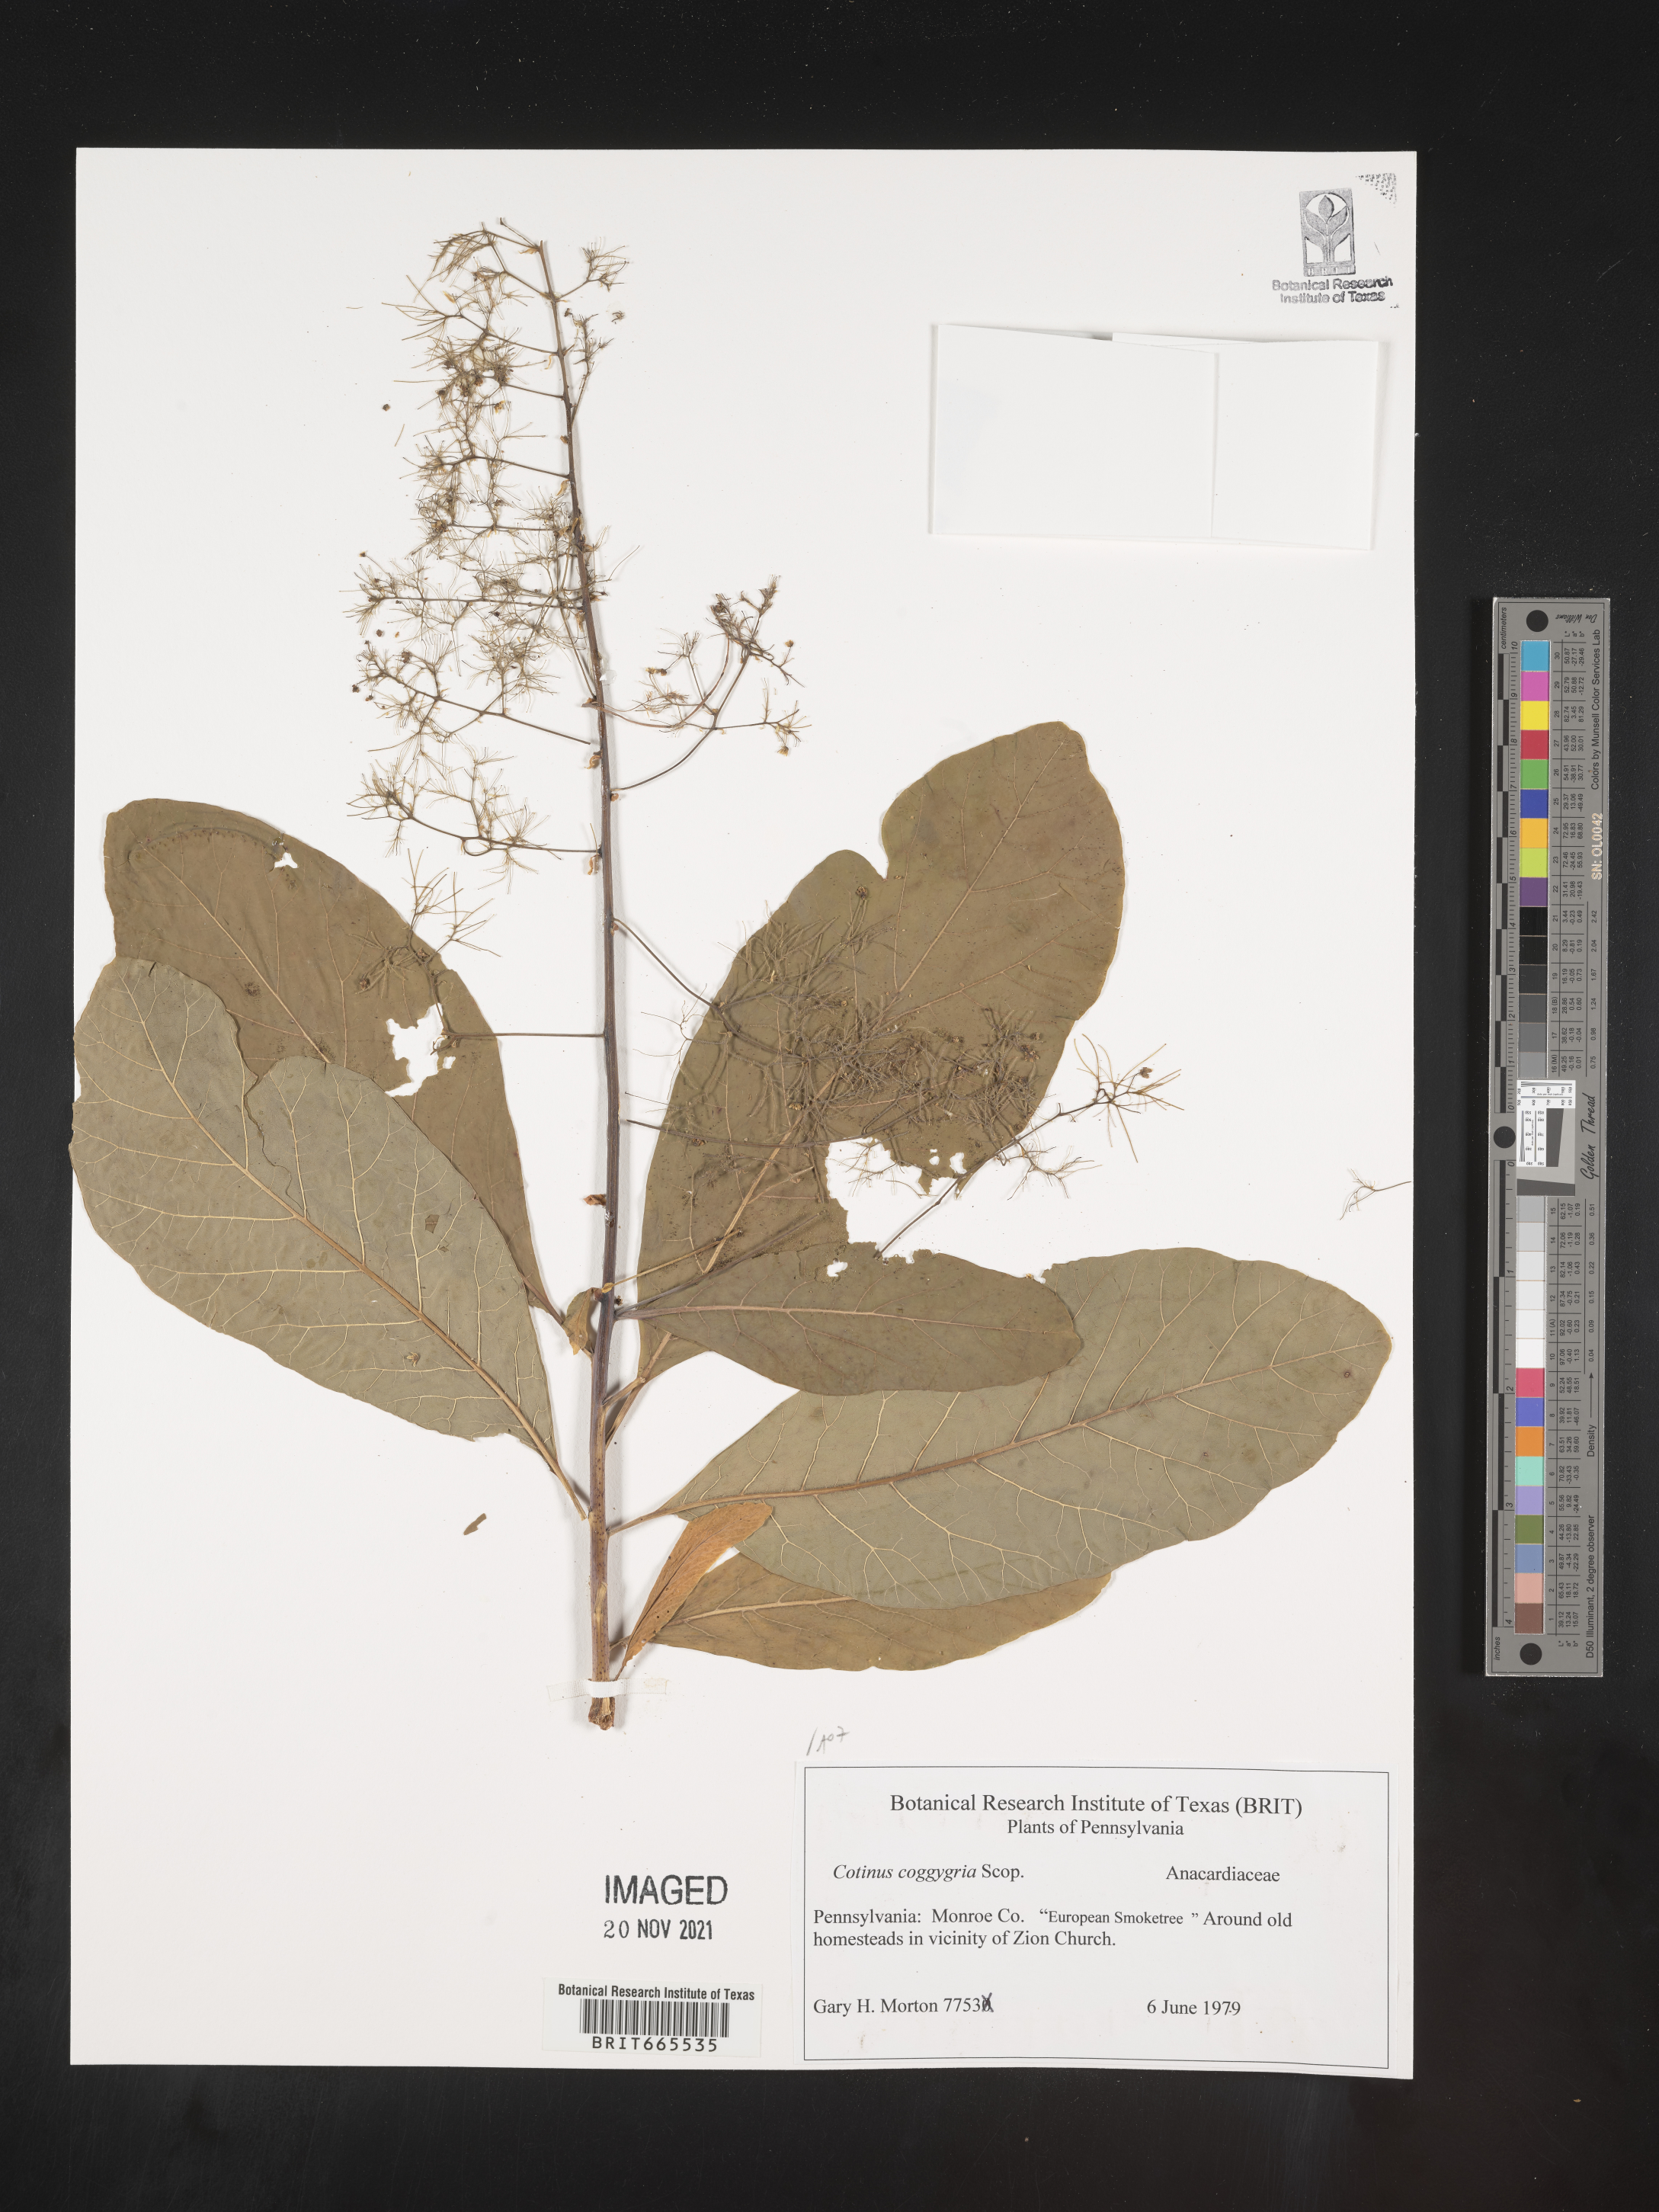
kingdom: Plantae
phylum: Tracheophyta
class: Magnoliopsida
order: Sapindales
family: Anacardiaceae
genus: Cotinus
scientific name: Cotinus coggygria
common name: Smoke-tree
